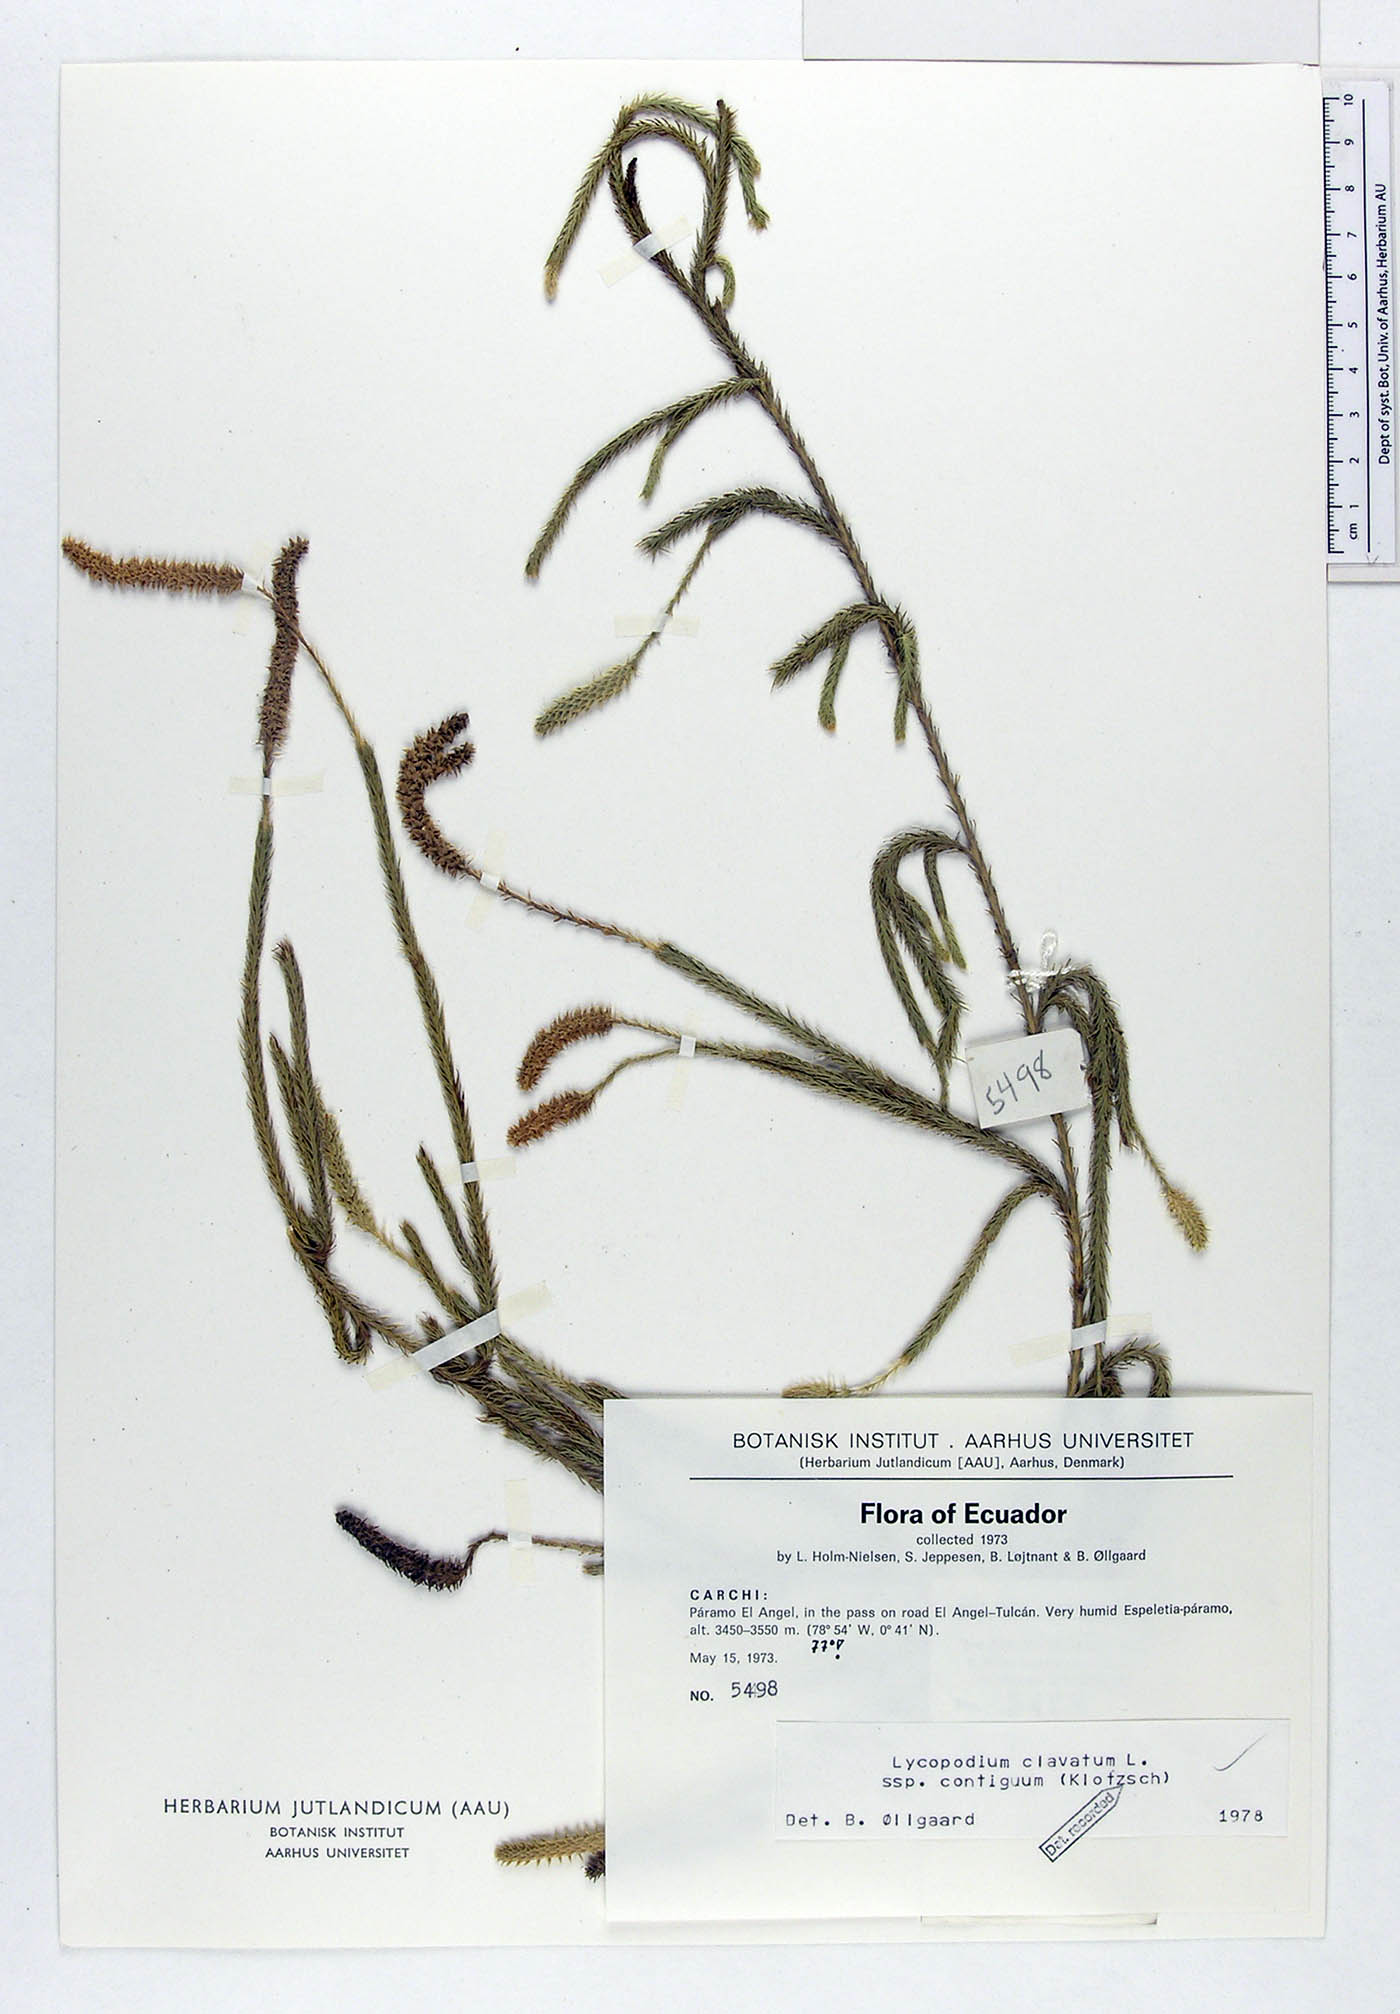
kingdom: Plantae
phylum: Tracheophyta
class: Lycopodiopsida
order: Lycopodiales
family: Lycopodiaceae
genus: Lycopodium
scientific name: Lycopodium clavatum
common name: Stag's-horn clubmoss
